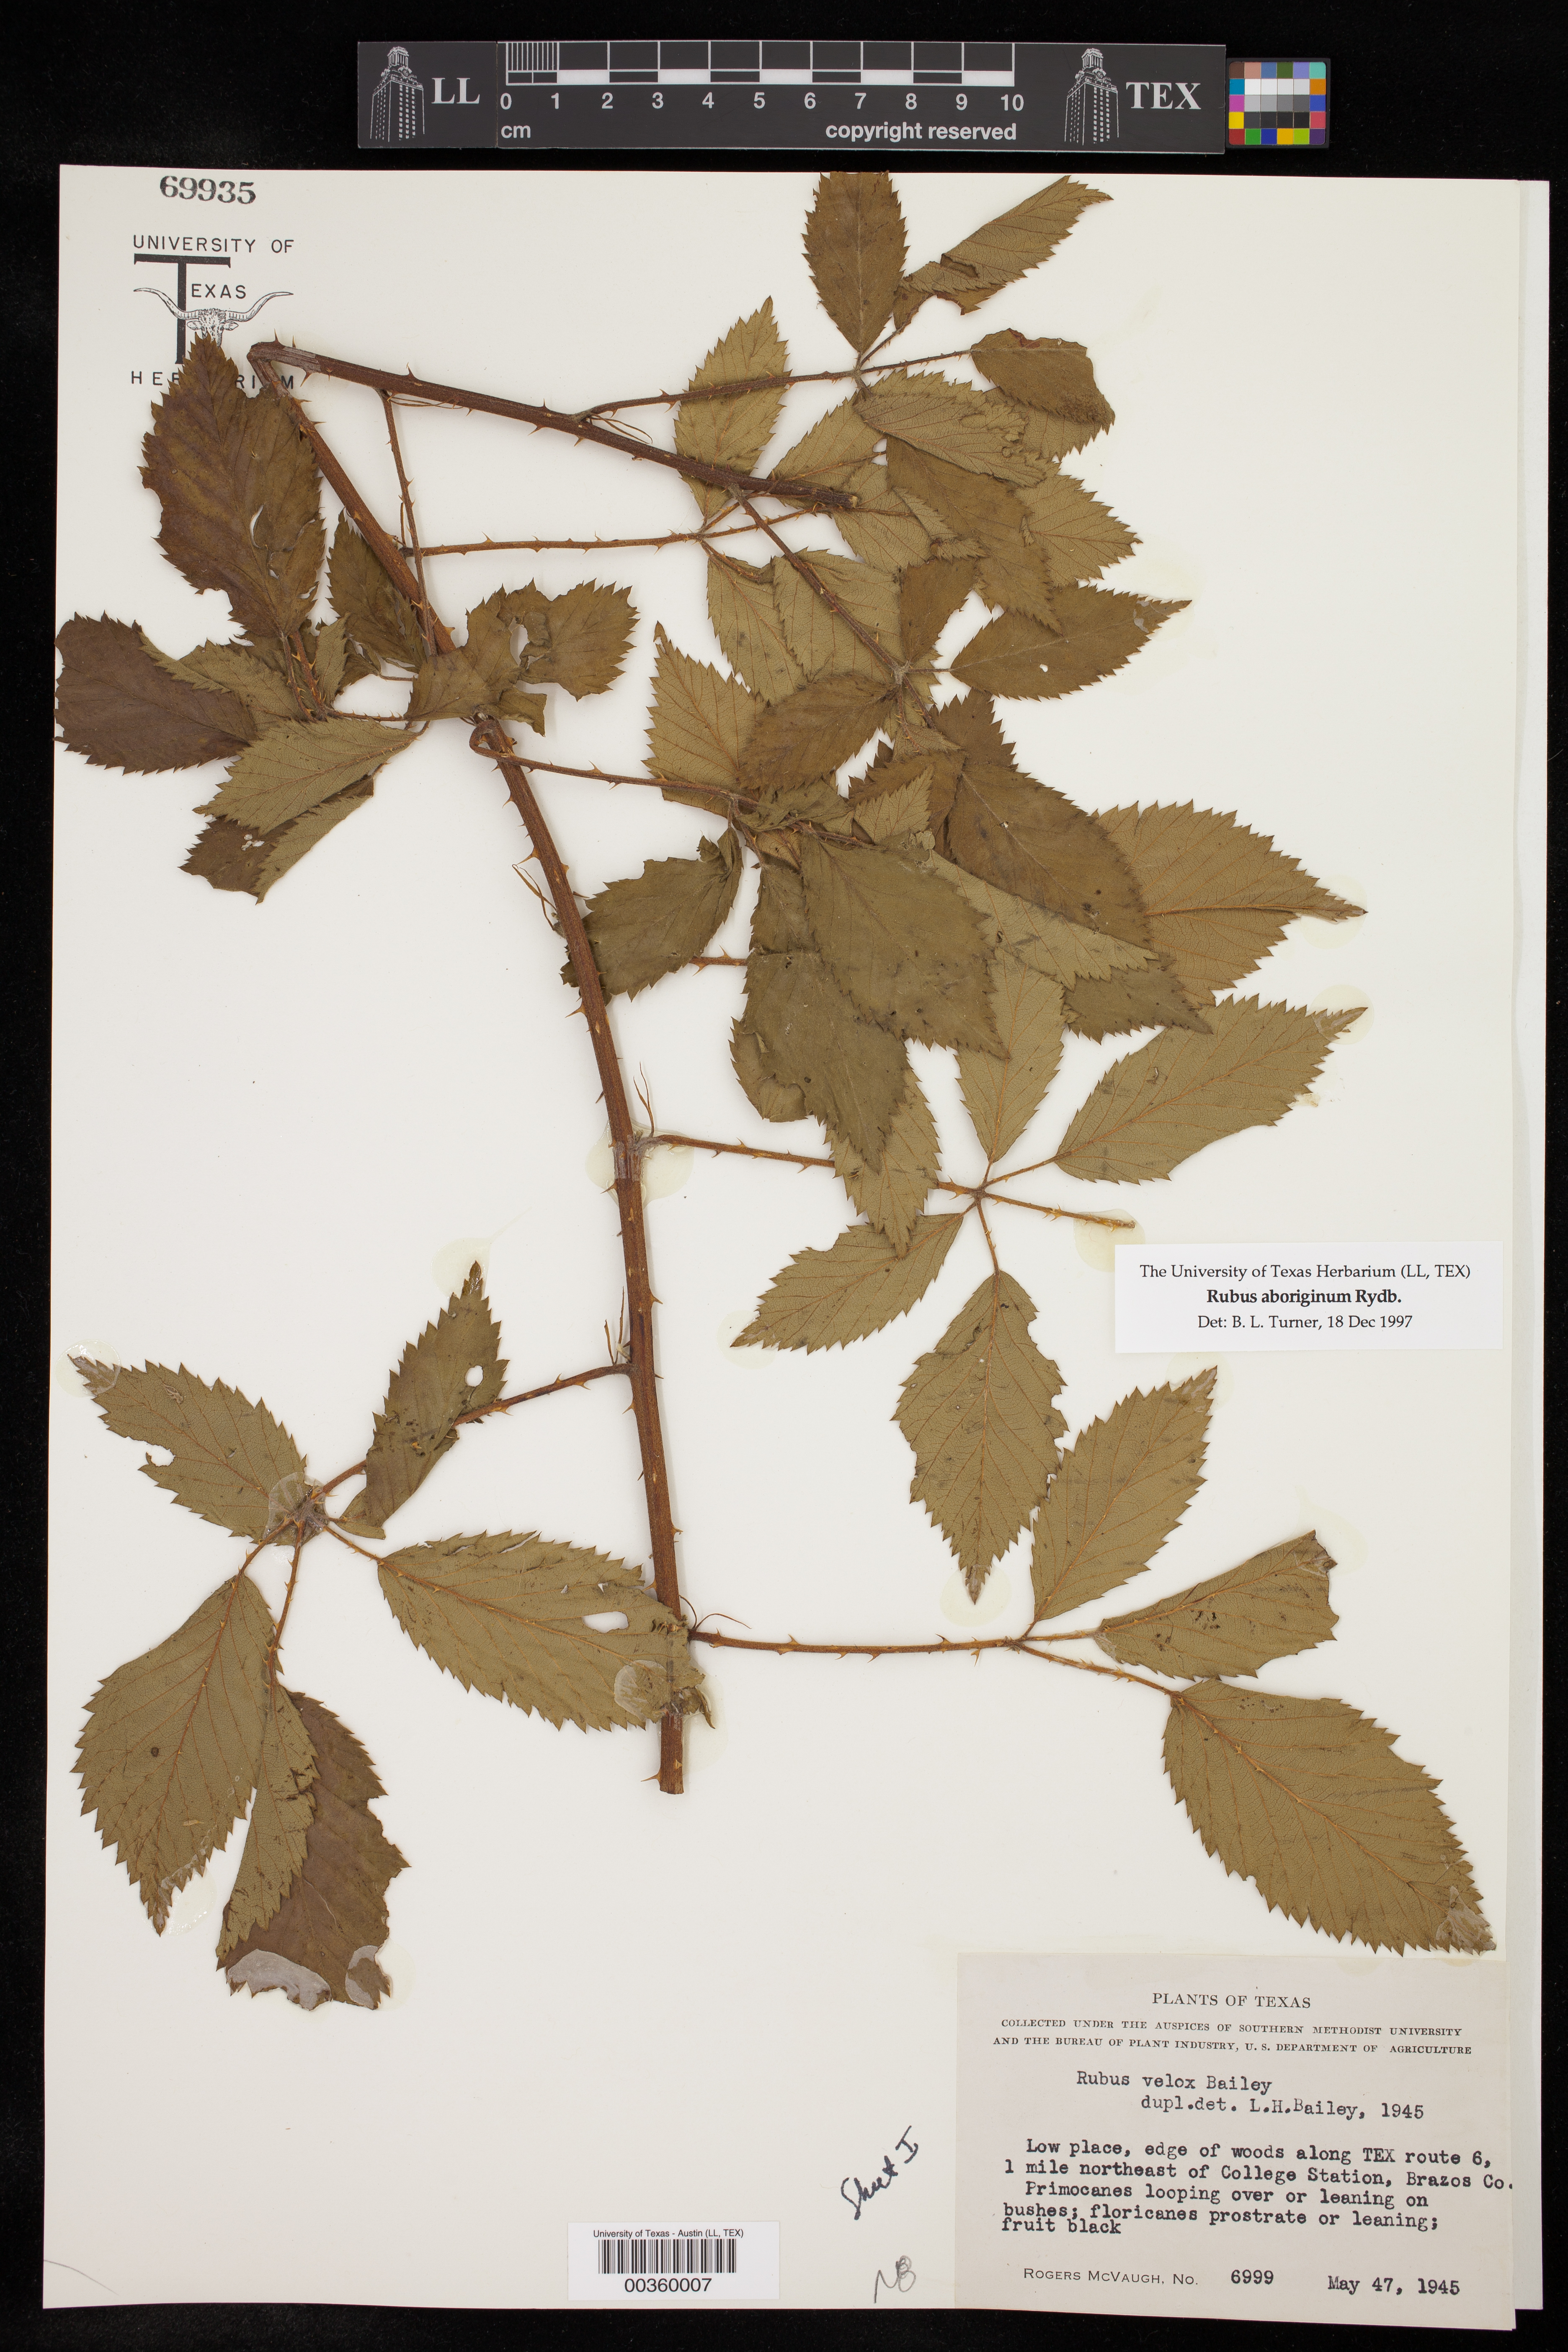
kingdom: Plantae
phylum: Tracheophyta
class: Magnoliopsida
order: Rosales
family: Rosaceae
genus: Rubus
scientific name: Rubus aboriginum
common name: Mayes dewberry
